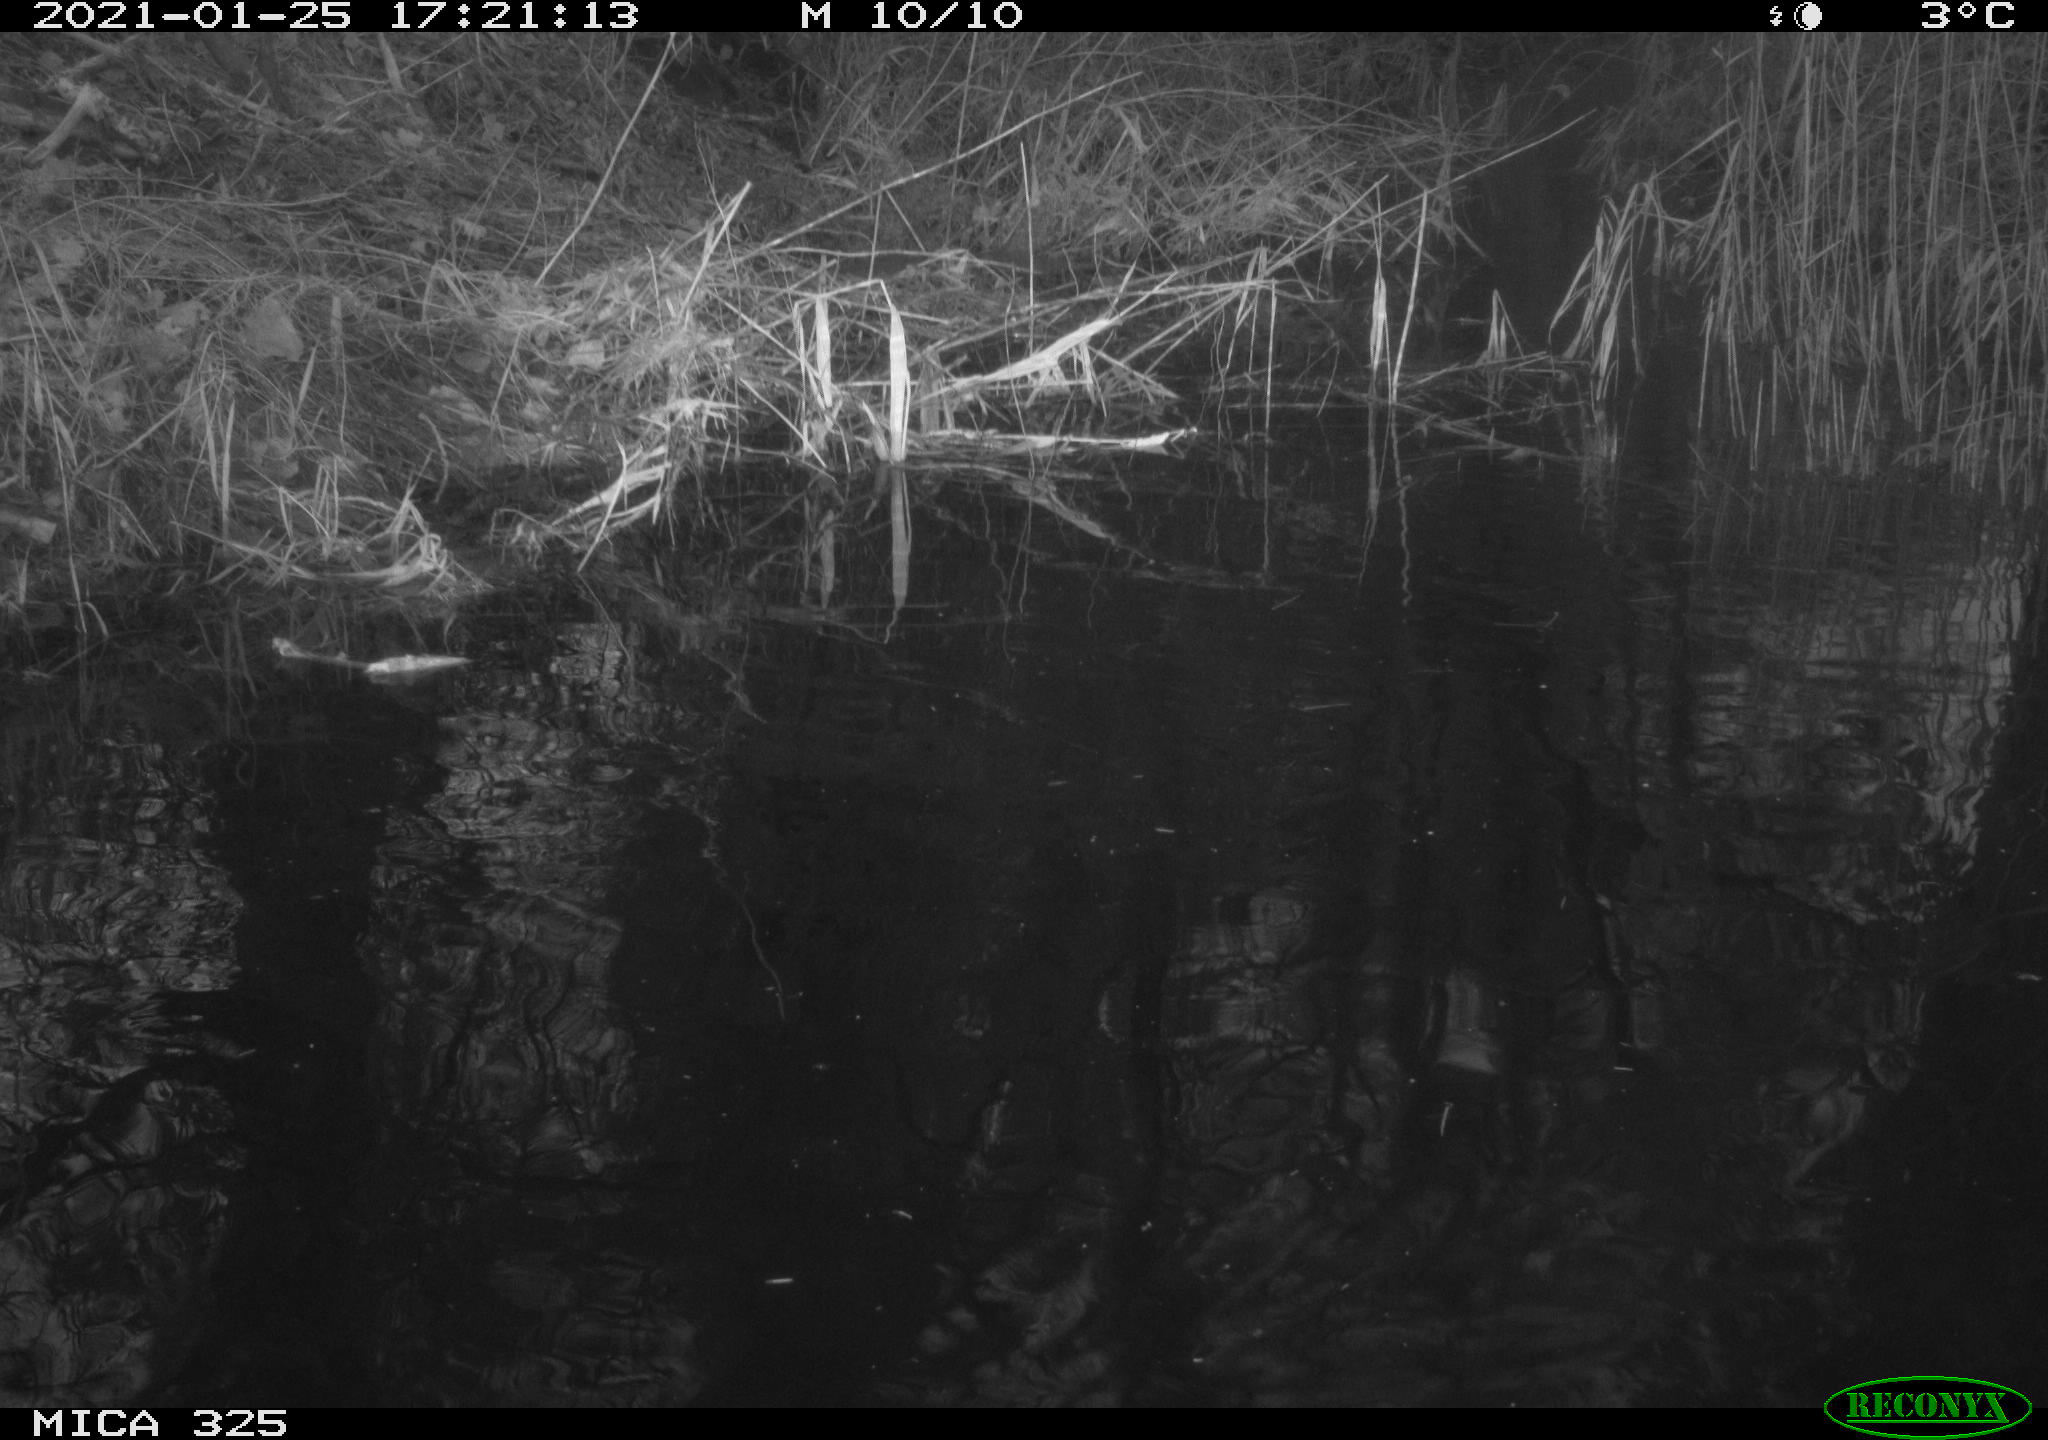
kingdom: Animalia
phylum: Chordata
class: Mammalia
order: Rodentia
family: Cricetidae
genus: Ondatra
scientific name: Ondatra zibethicus
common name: Muskrat
